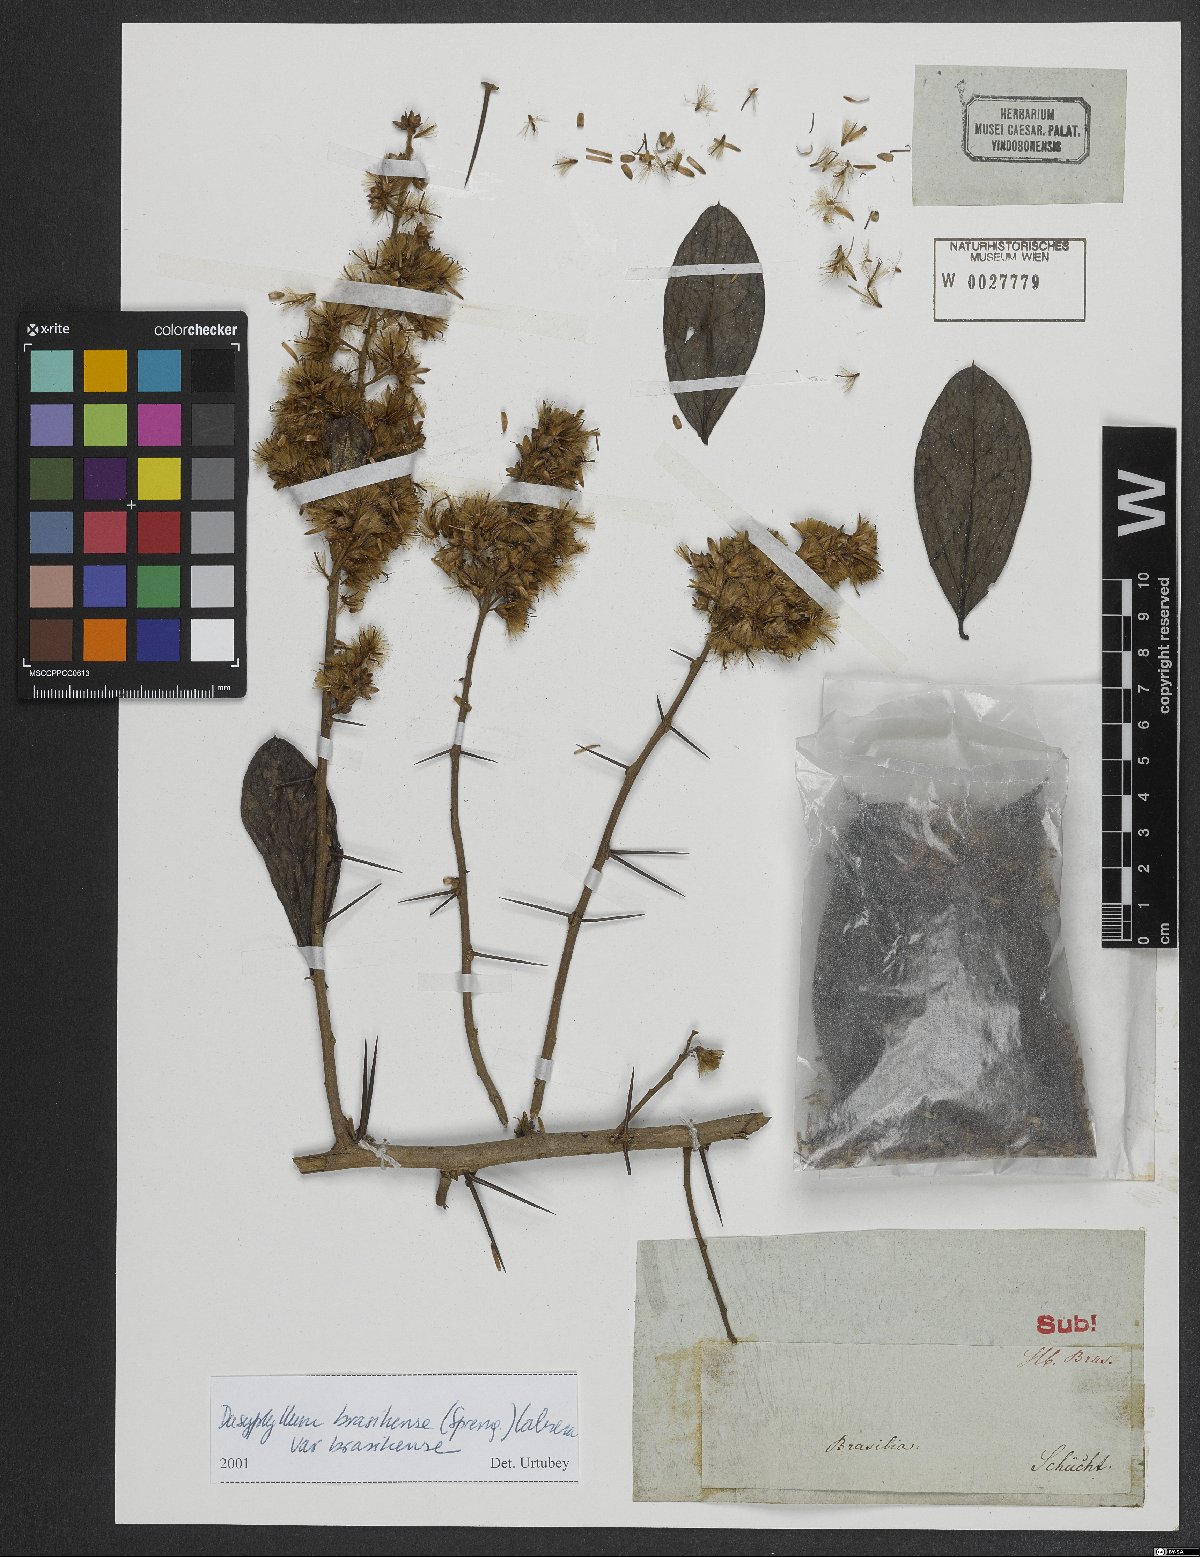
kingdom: Plantae
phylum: Tracheophyta
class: Magnoliopsida
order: Asterales
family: Asteraceae
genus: Dasyphyllum
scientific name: Dasyphyllum brasiliense
